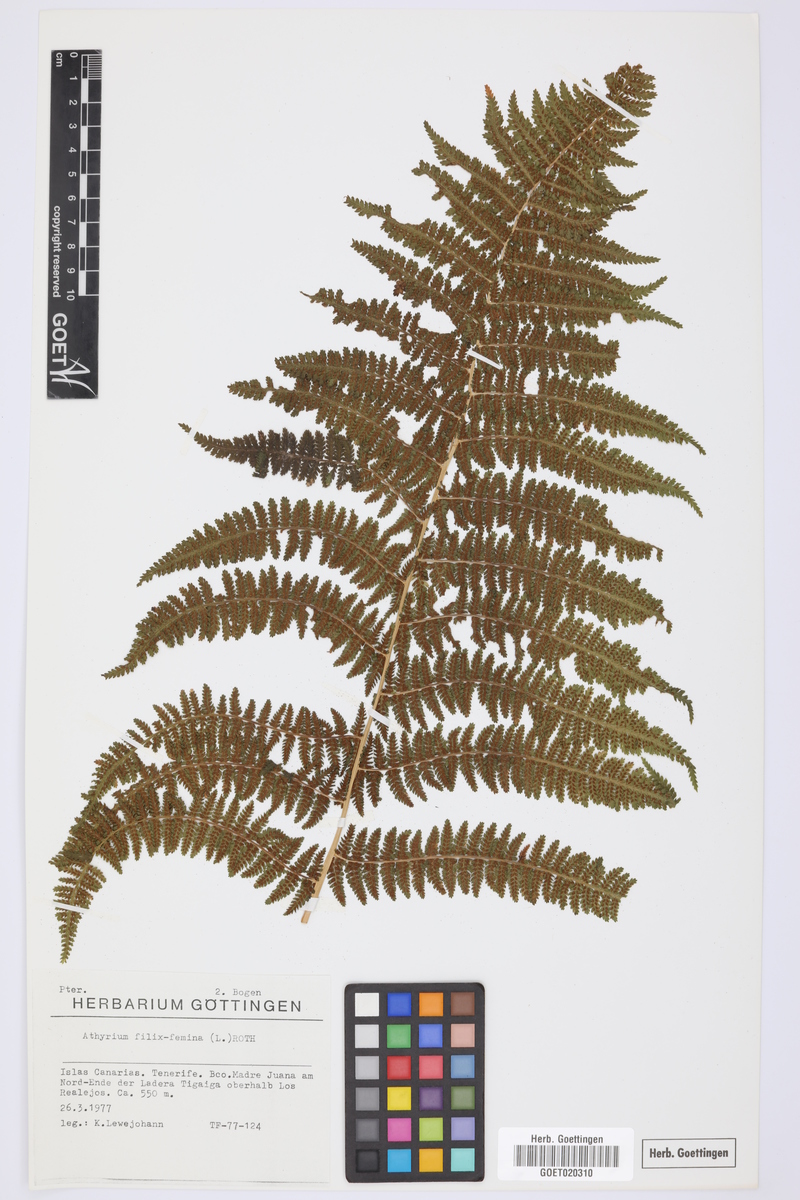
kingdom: Plantae
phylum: Tracheophyta
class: Polypodiopsida
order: Polypodiales
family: Athyriaceae
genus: Athyrium
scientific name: Athyrium filix-femina
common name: Lady fern
